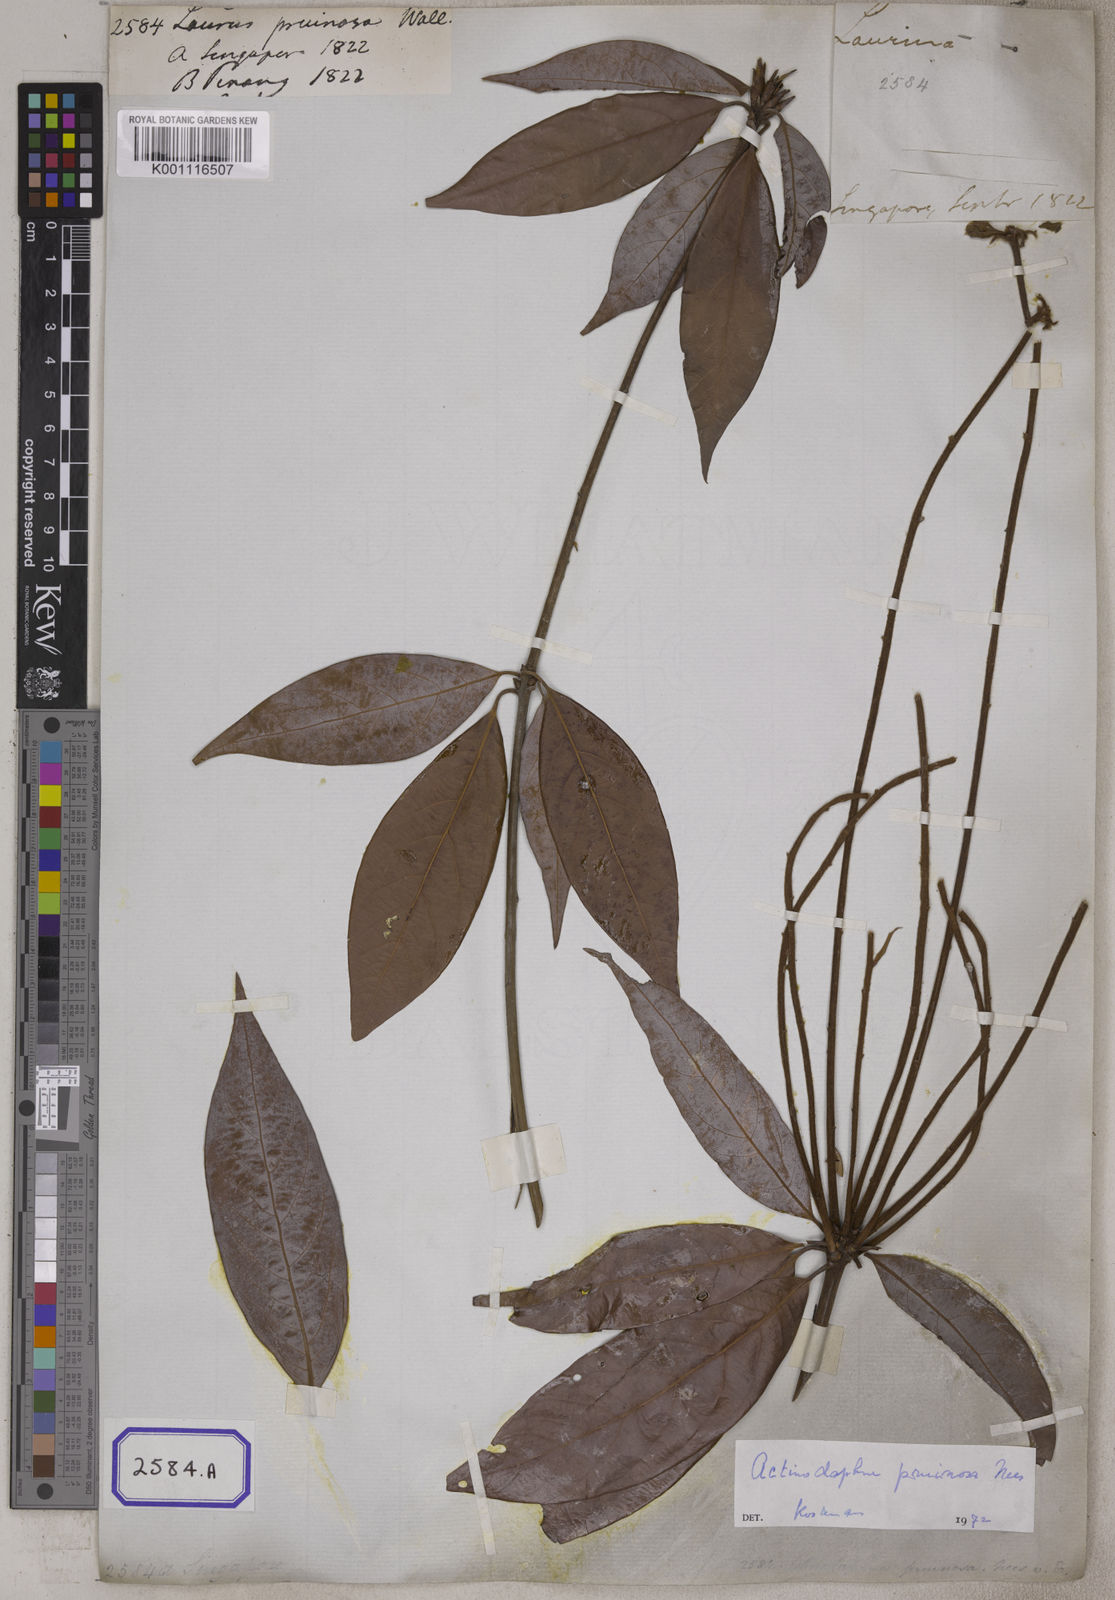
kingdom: Plantae
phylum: Tracheophyta
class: Magnoliopsida
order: Laurales
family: Lauraceae
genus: Actinodaphne
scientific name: Actinodaphne pruinosa
